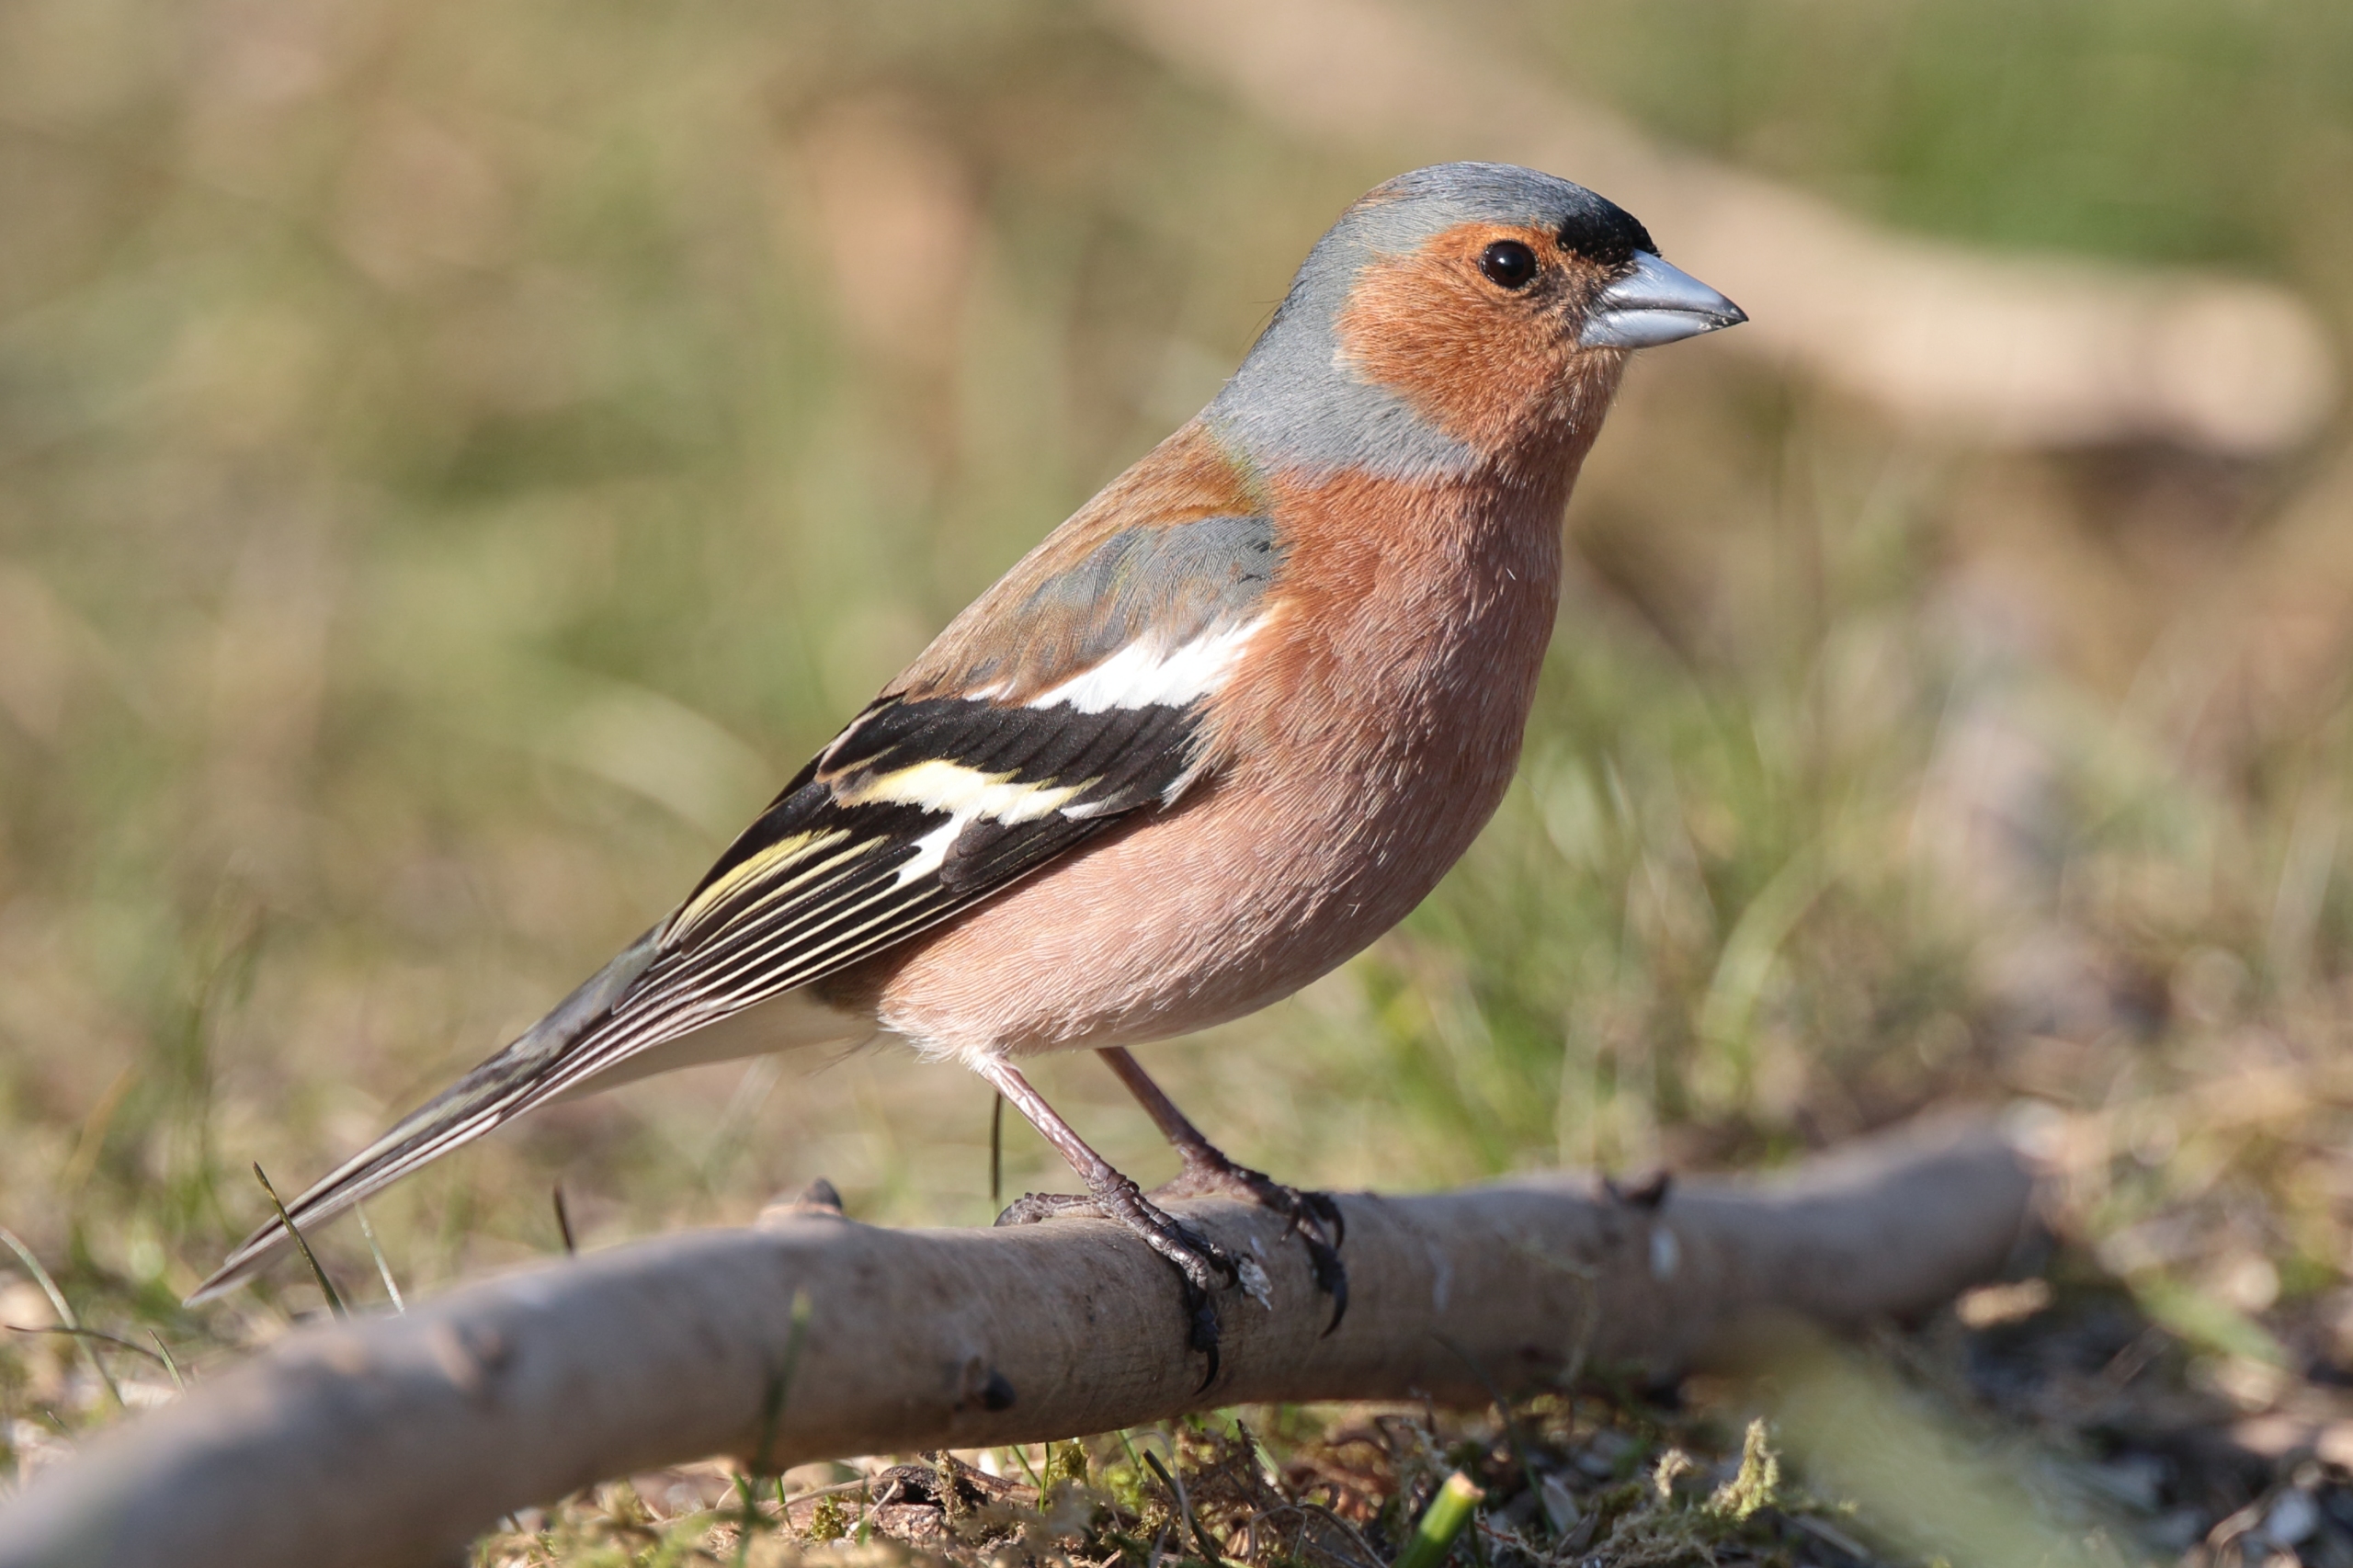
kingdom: Animalia
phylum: Chordata
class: Aves
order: Passeriformes
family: Fringillidae
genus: Fringilla
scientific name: Fringilla coelebs
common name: Bogfinke
